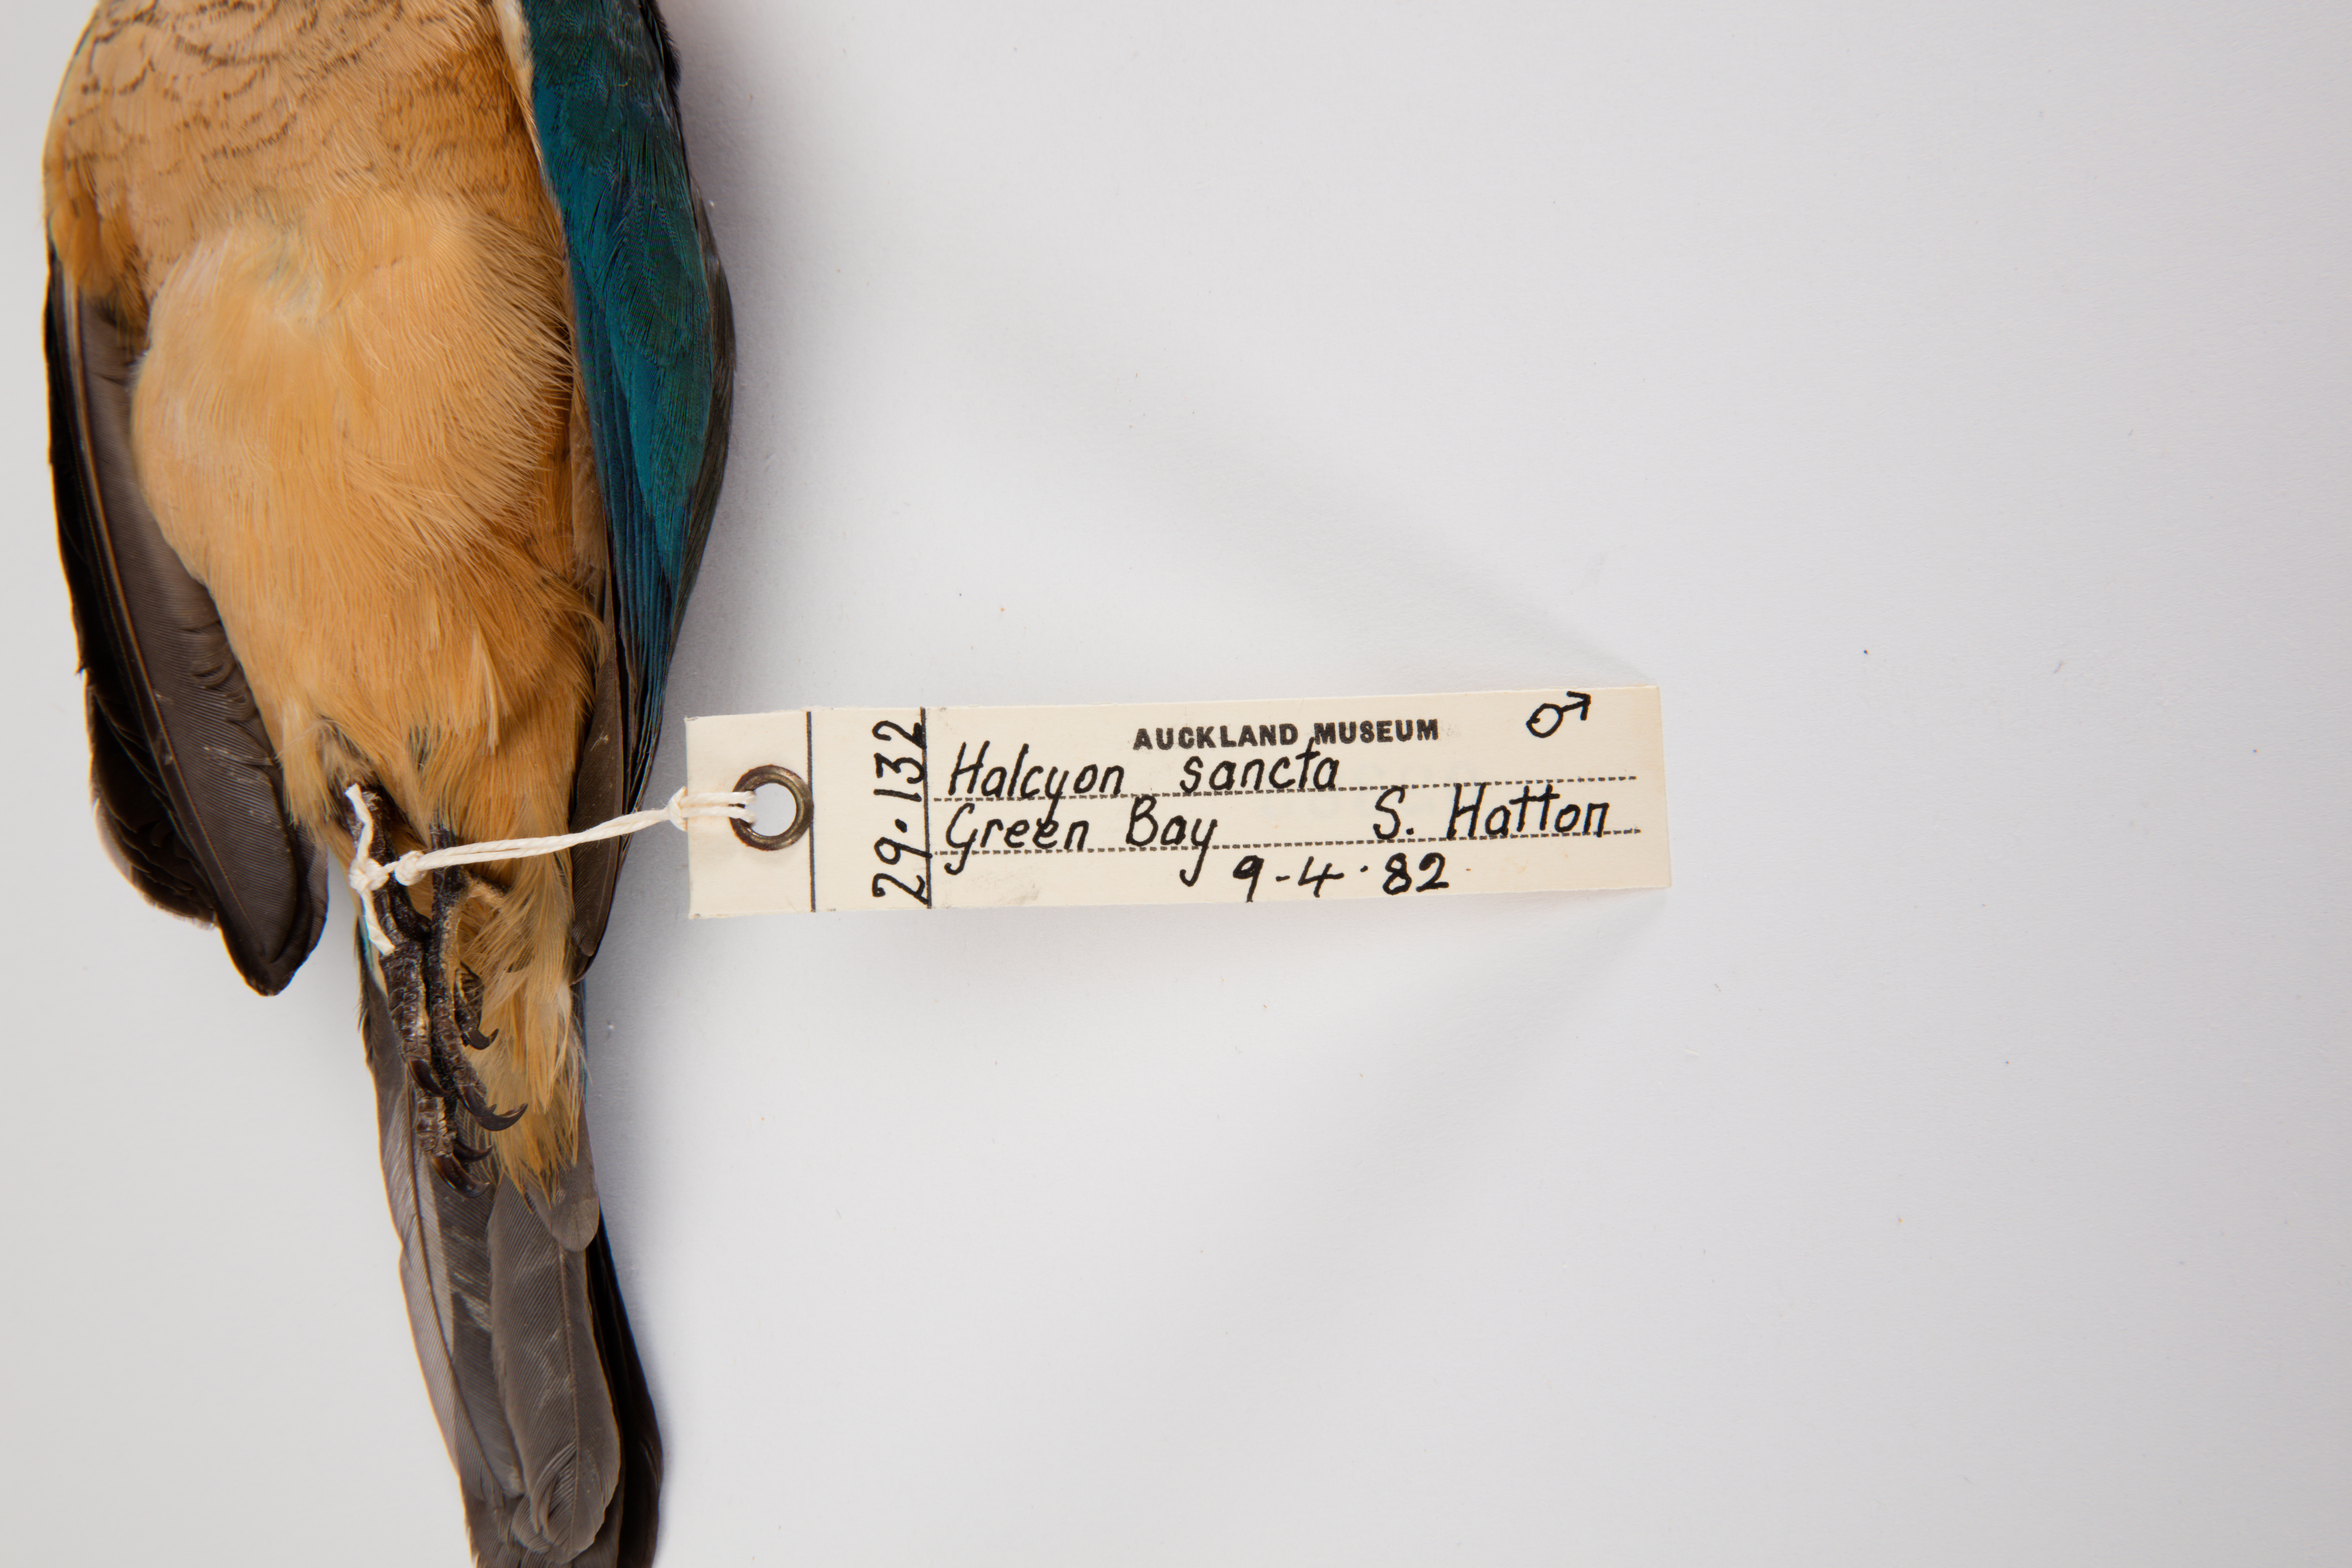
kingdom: Animalia
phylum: Chordata
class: Aves
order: Coraciiformes
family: Alcedinidae
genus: Todiramphus
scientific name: Todiramphus sanctus
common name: Sacred kingfisher
